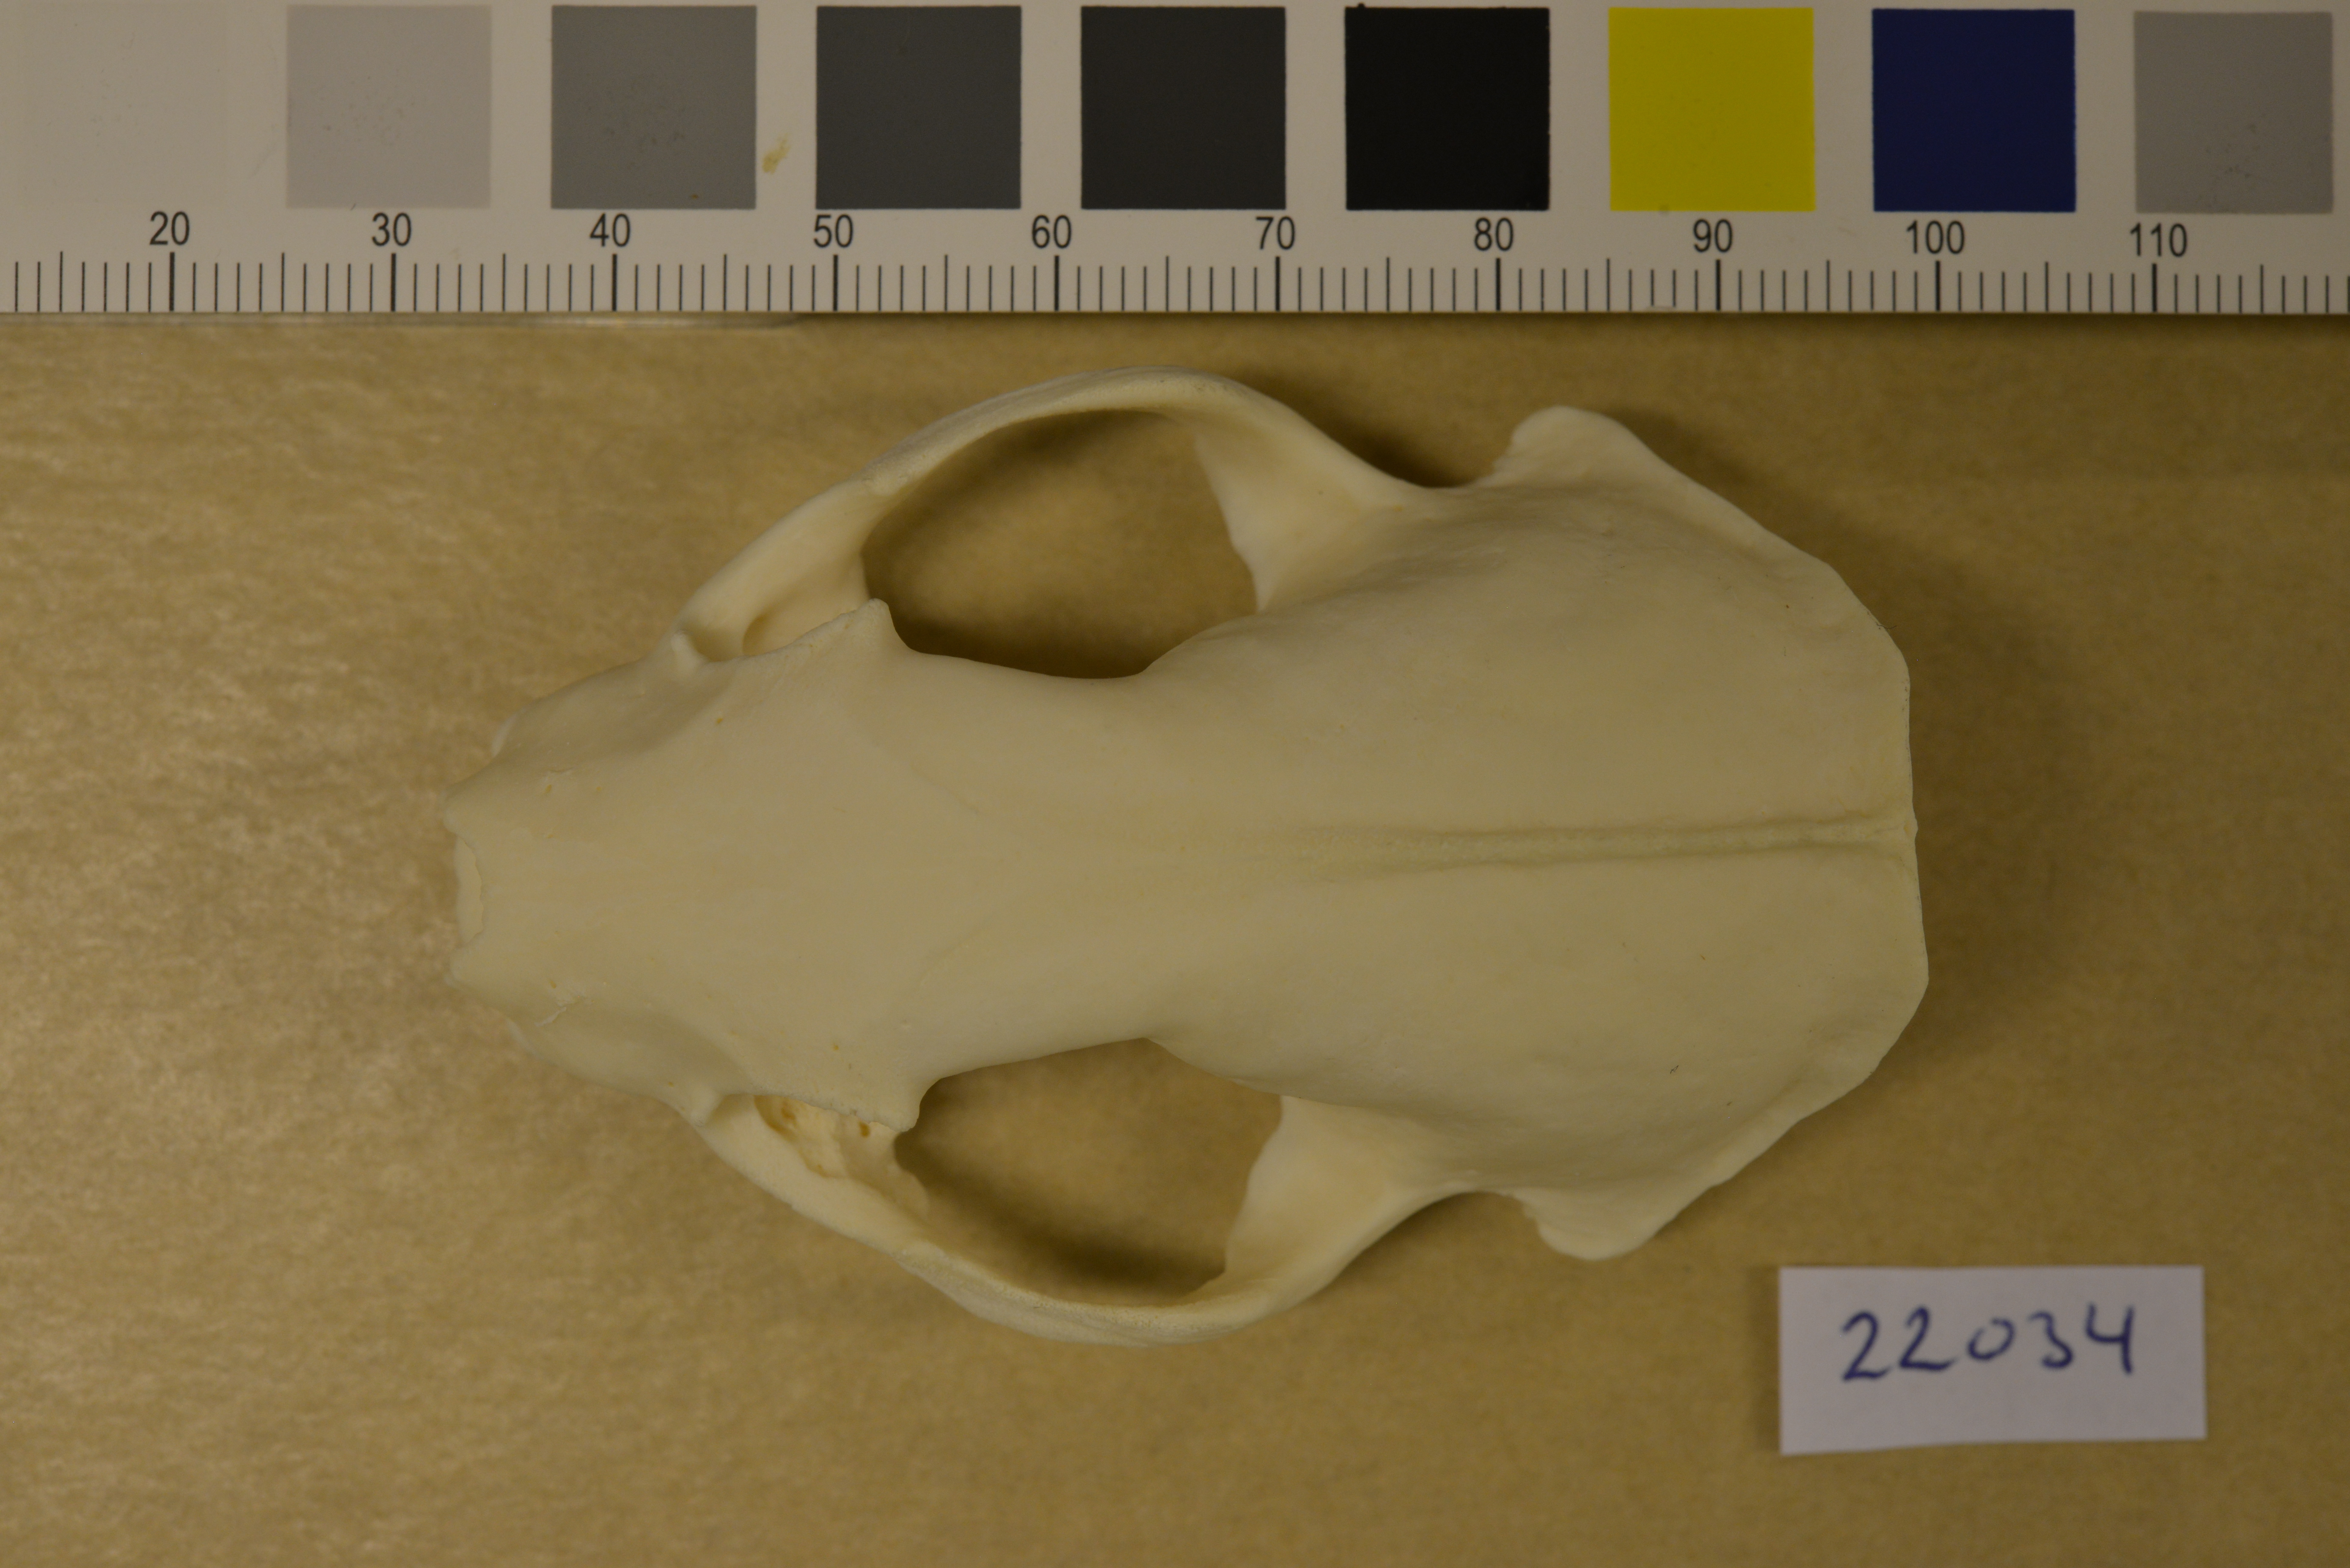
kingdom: Animalia
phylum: Chordata
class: Mammalia
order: Carnivora
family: Mustelidae
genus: Mustela
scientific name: Mustela putorius
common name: European polecat
